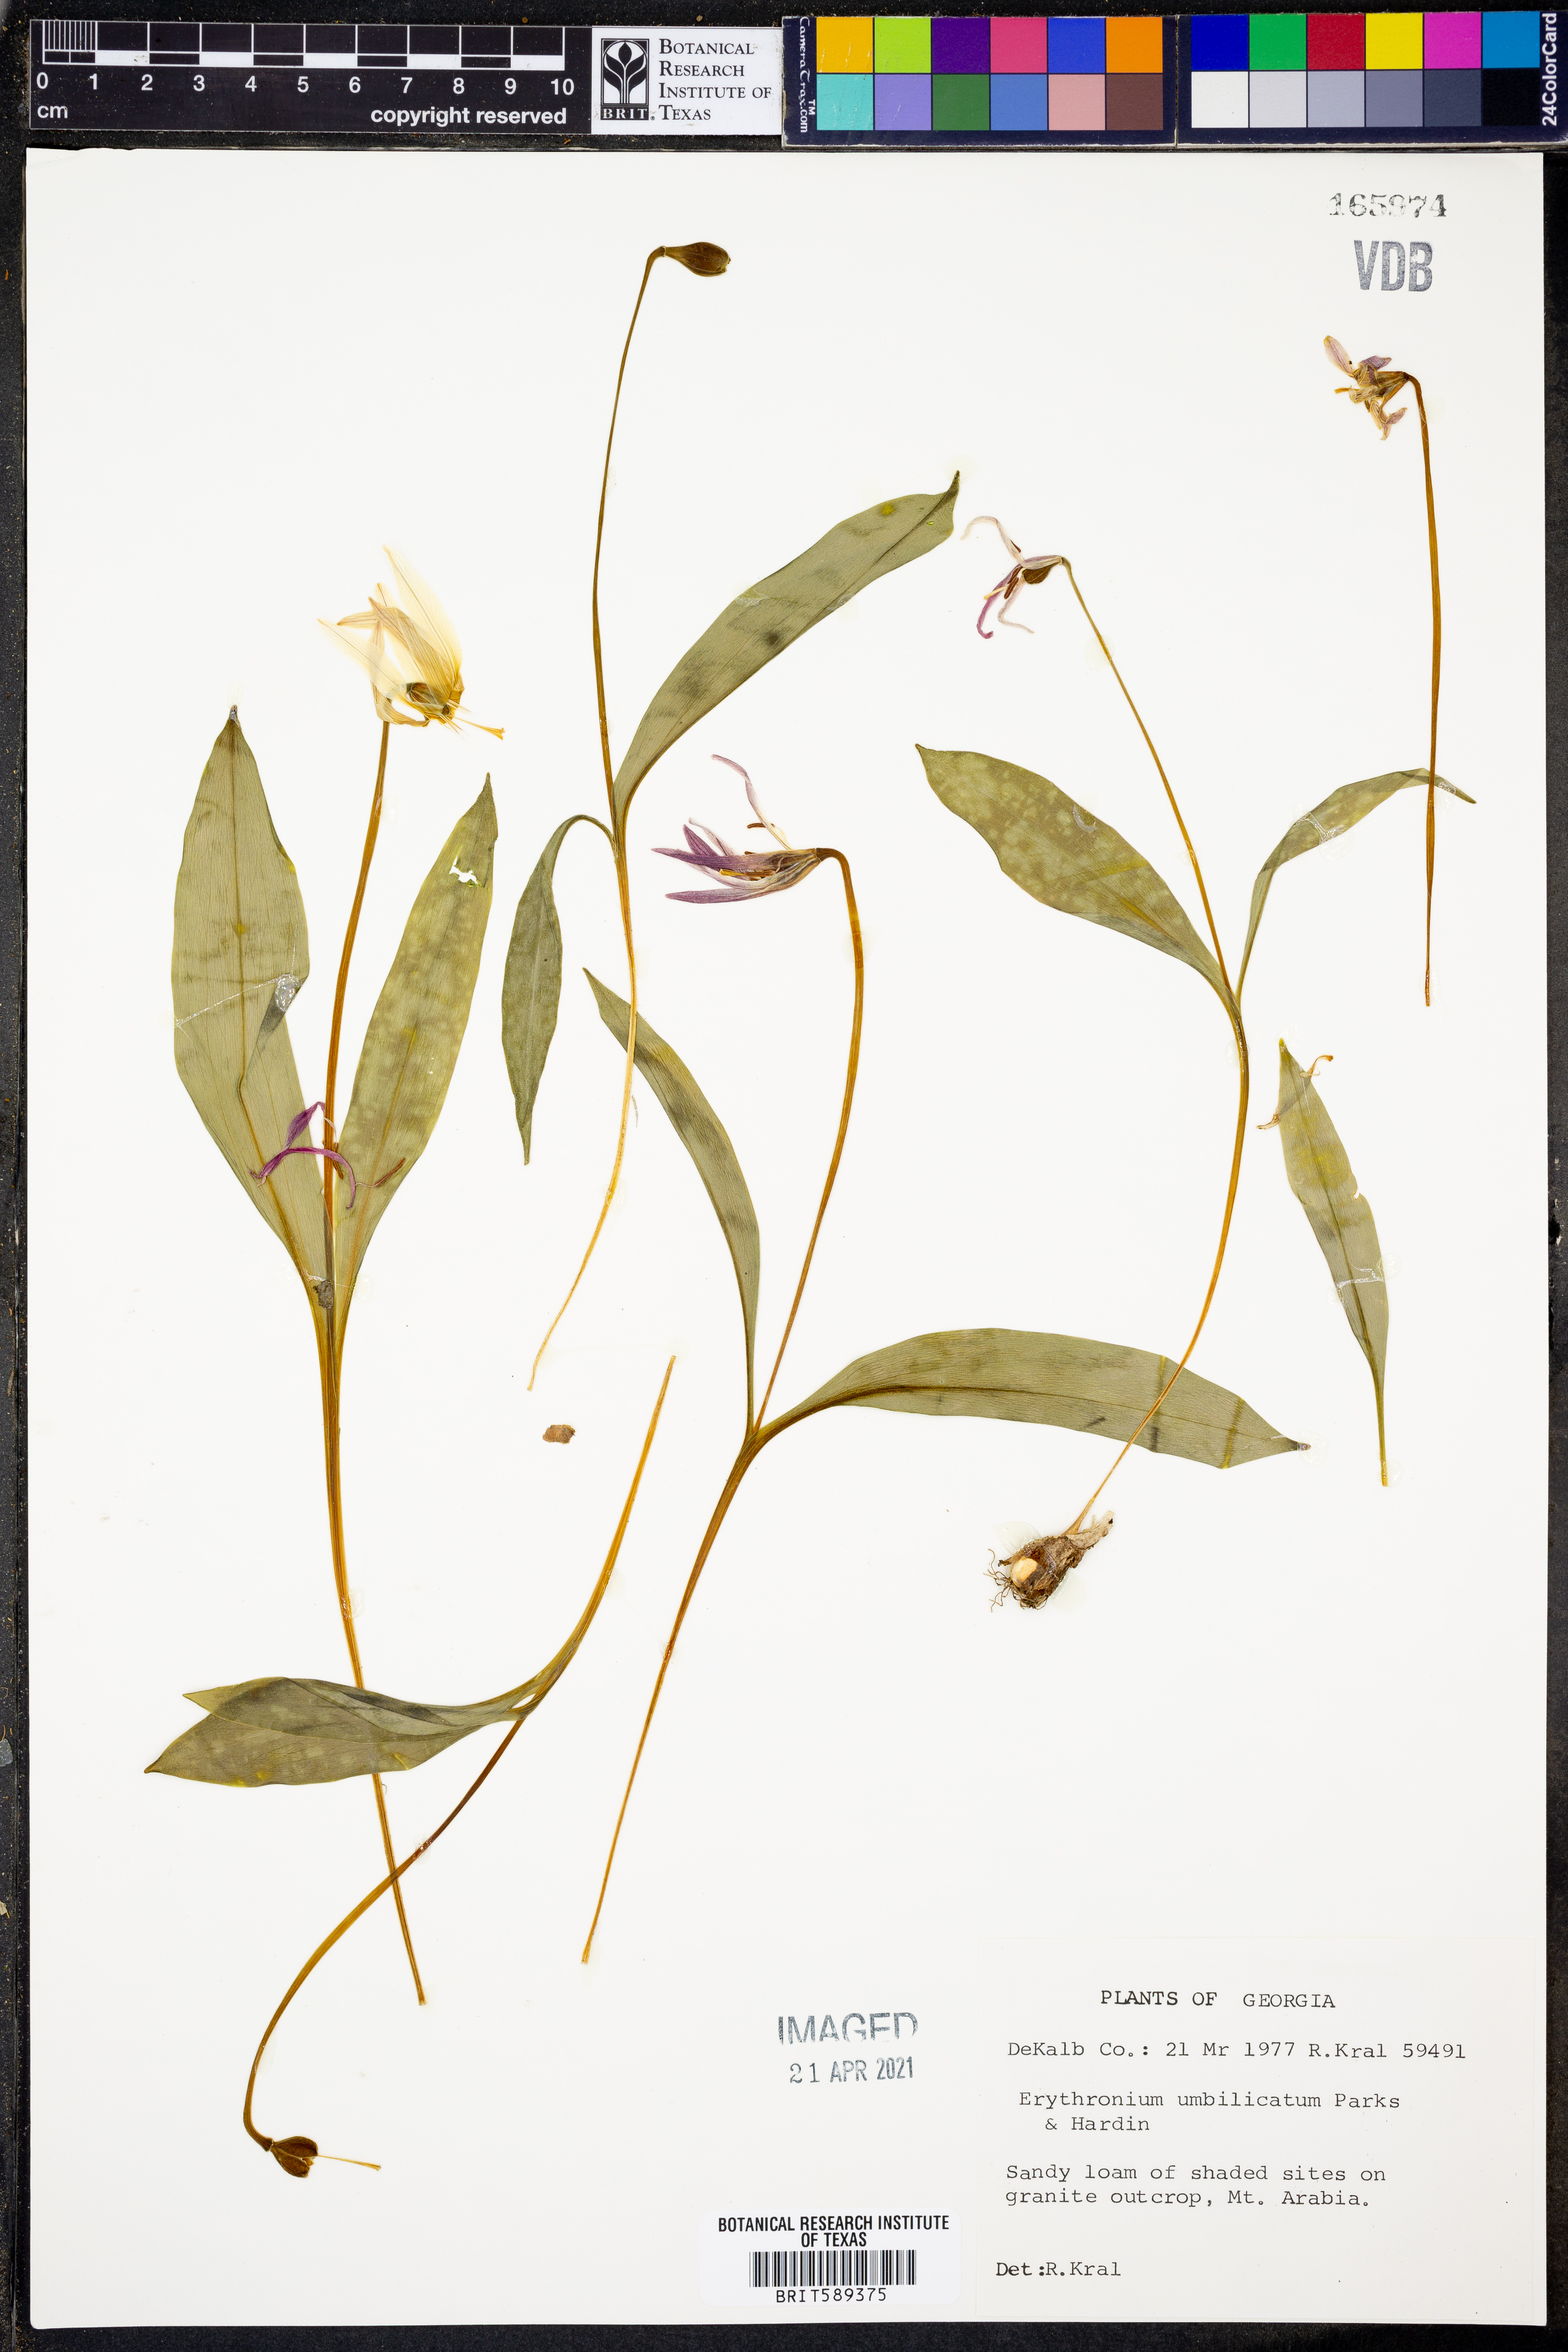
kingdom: Plantae
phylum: Tracheophyta
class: Liliopsida
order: Liliales
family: Liliaceae
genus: Erythronium
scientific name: Erythronium umbilicatum
